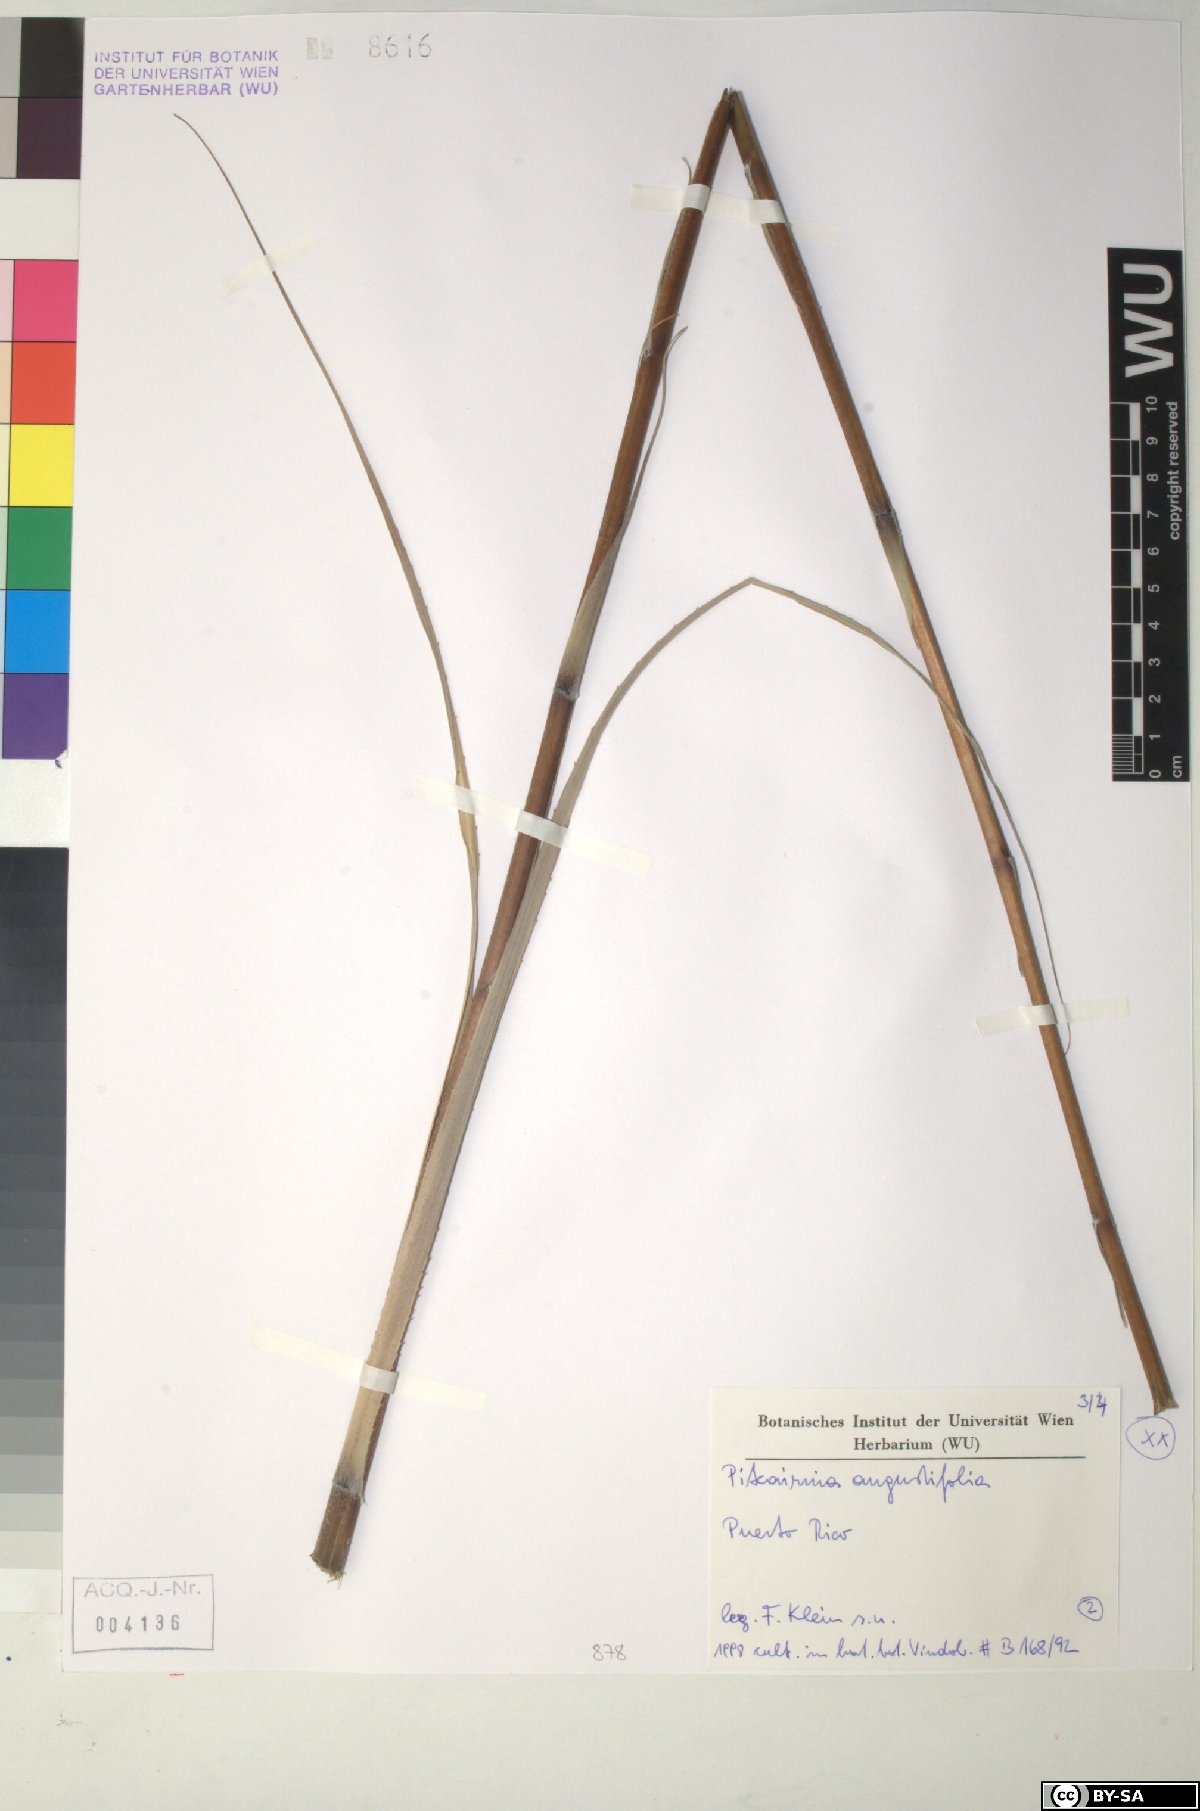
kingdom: Plantae
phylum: Tracheophyta
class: Liliopsida
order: Poales
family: Bromeliaceae
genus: Pitcairnia
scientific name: Pitcairnia angustifolia
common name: Clapper
